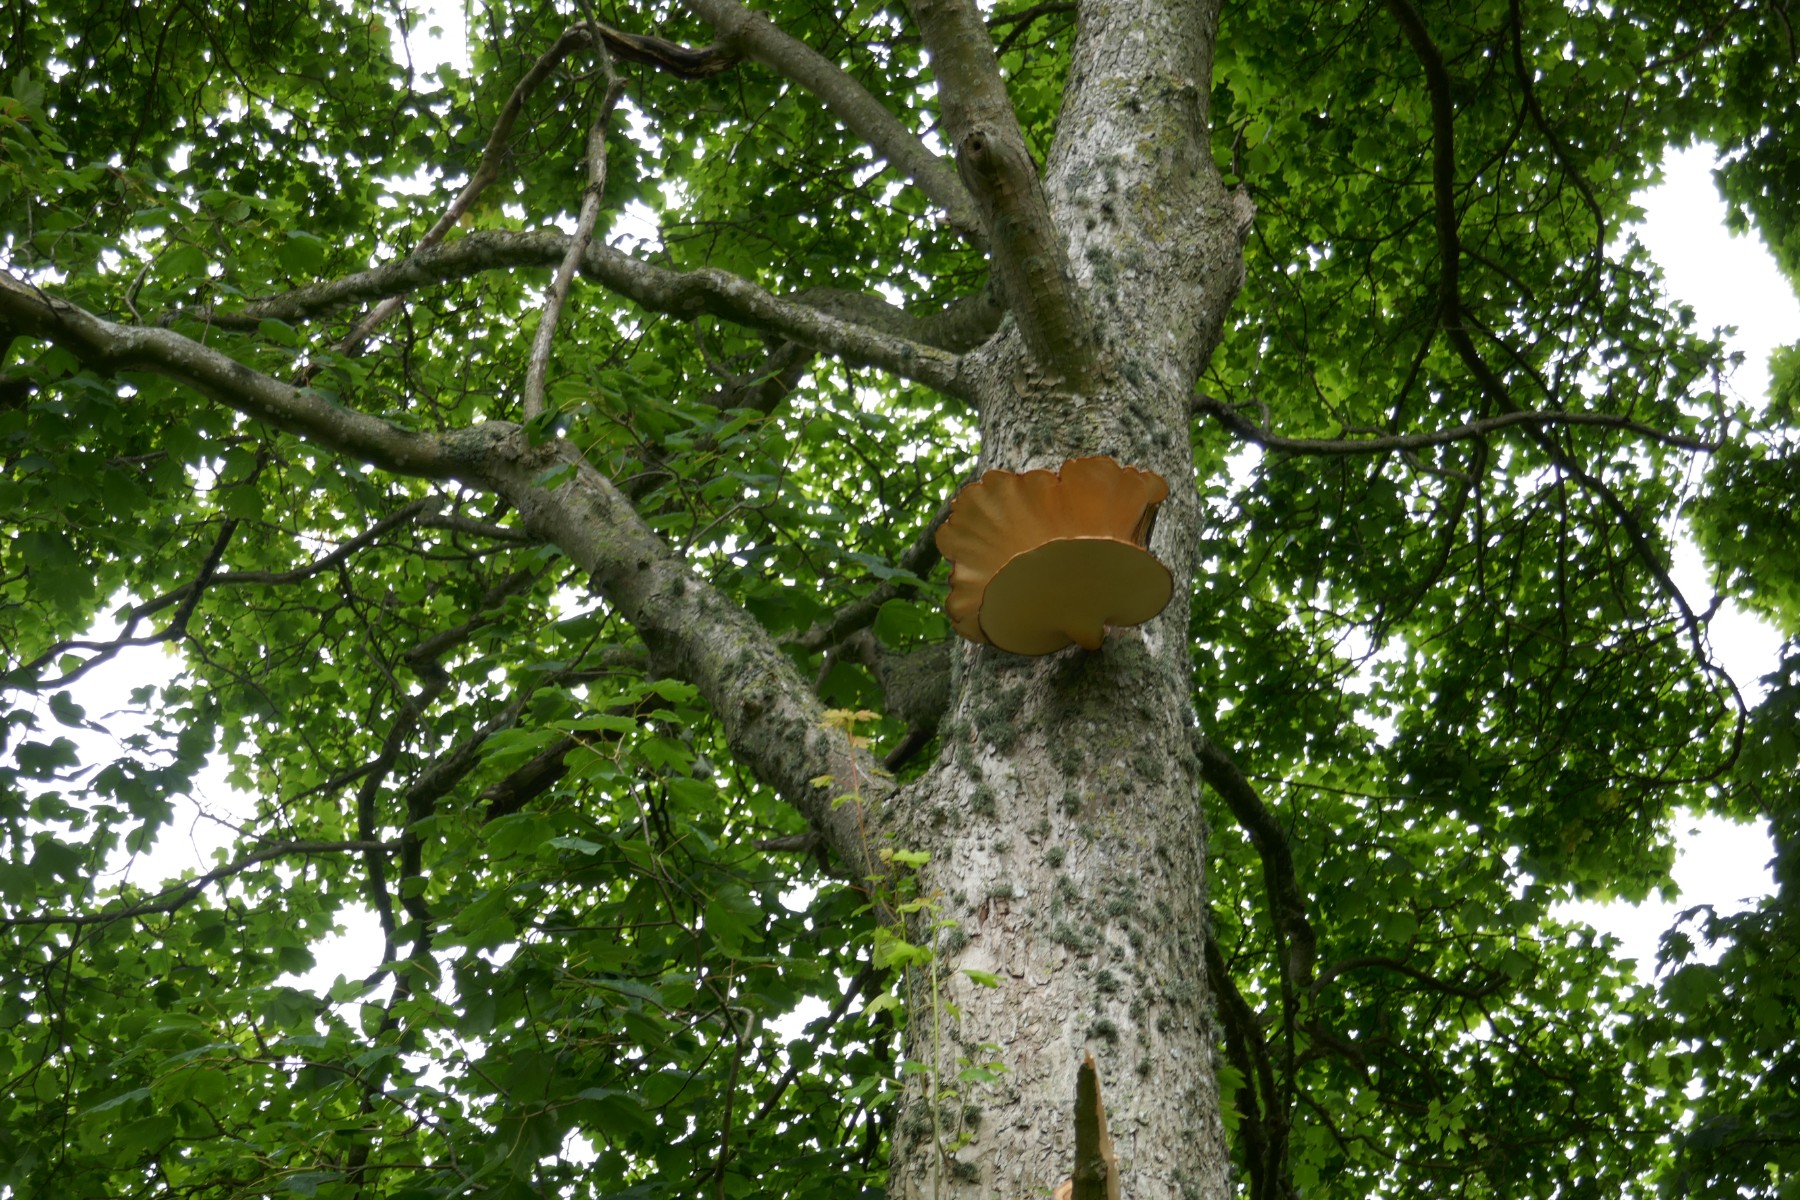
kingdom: Fungi
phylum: Basidiomycota
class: Agaricomycetes
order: Polyporales
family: Polyporaceae
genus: Cerioporus
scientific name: Cerioporus squamosus
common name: skællet stilkporesvamp
